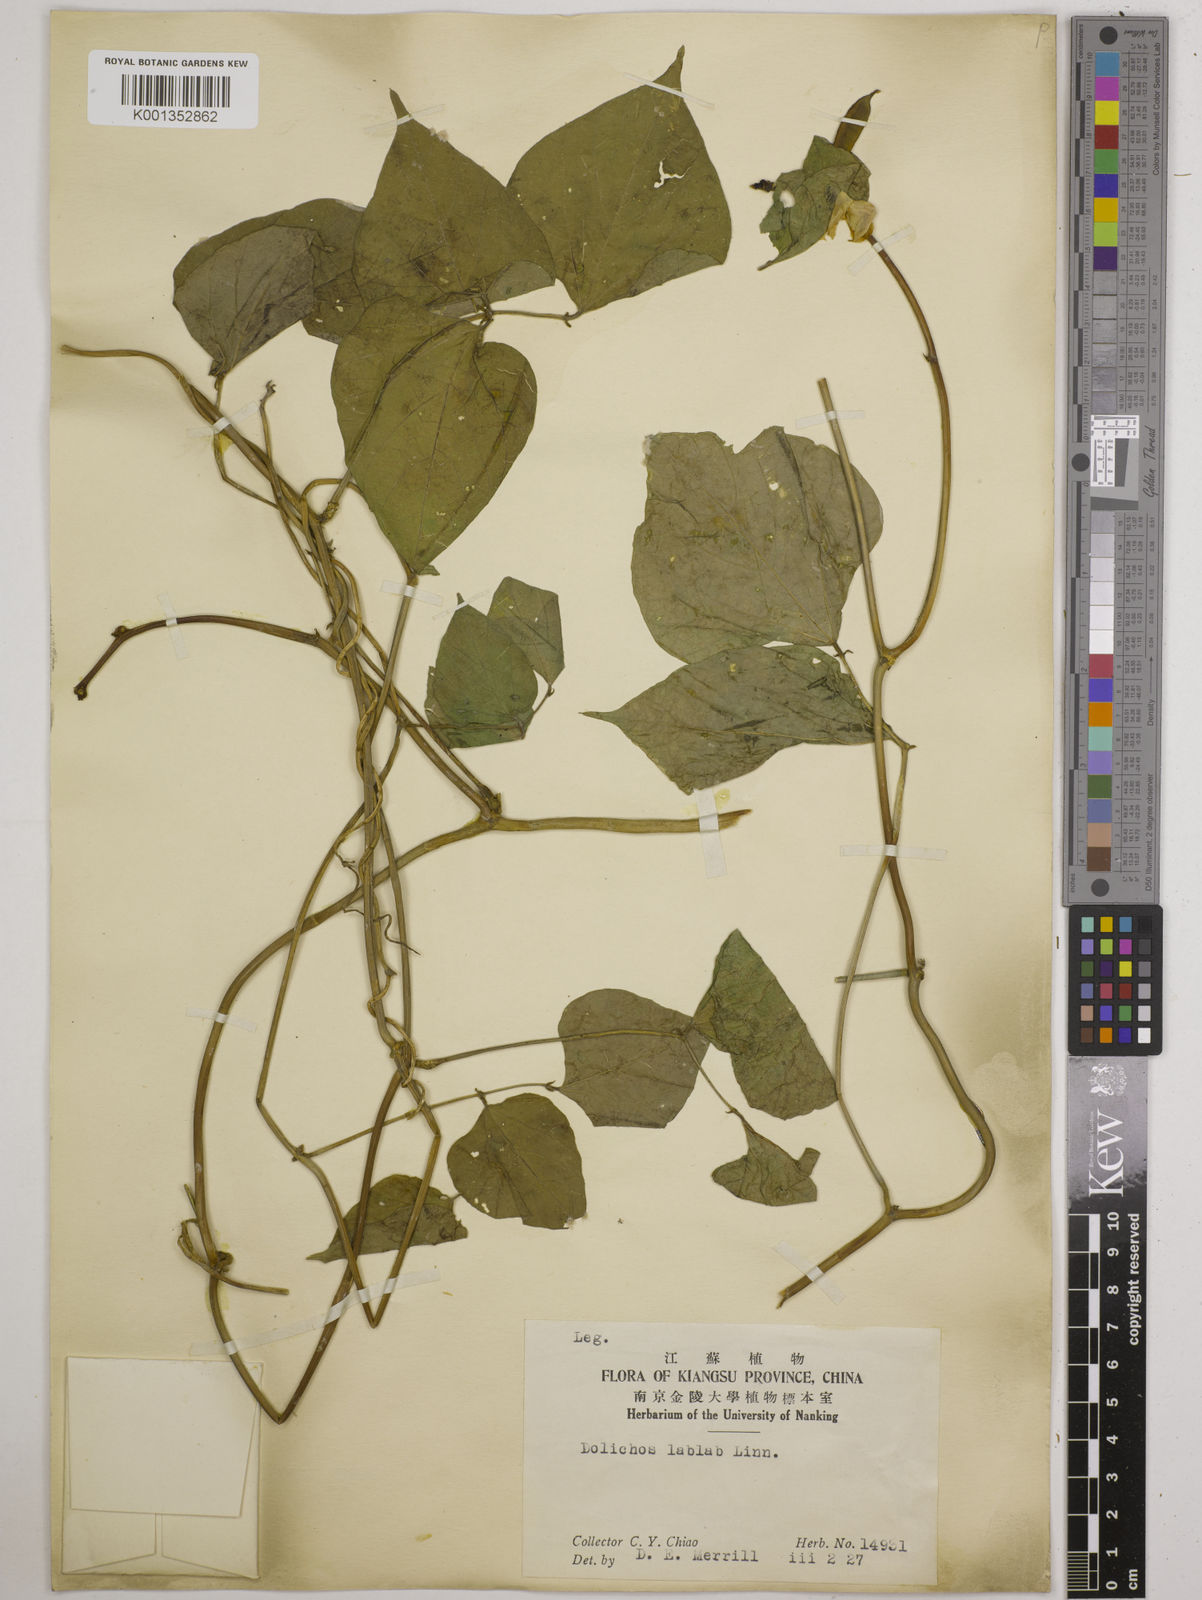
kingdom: Plantae
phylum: Tracheophyta
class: Magnoliopsida
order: Fabales
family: Fabaceae
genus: Lablab
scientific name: Lablab purpureus
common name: Lablab-bean
